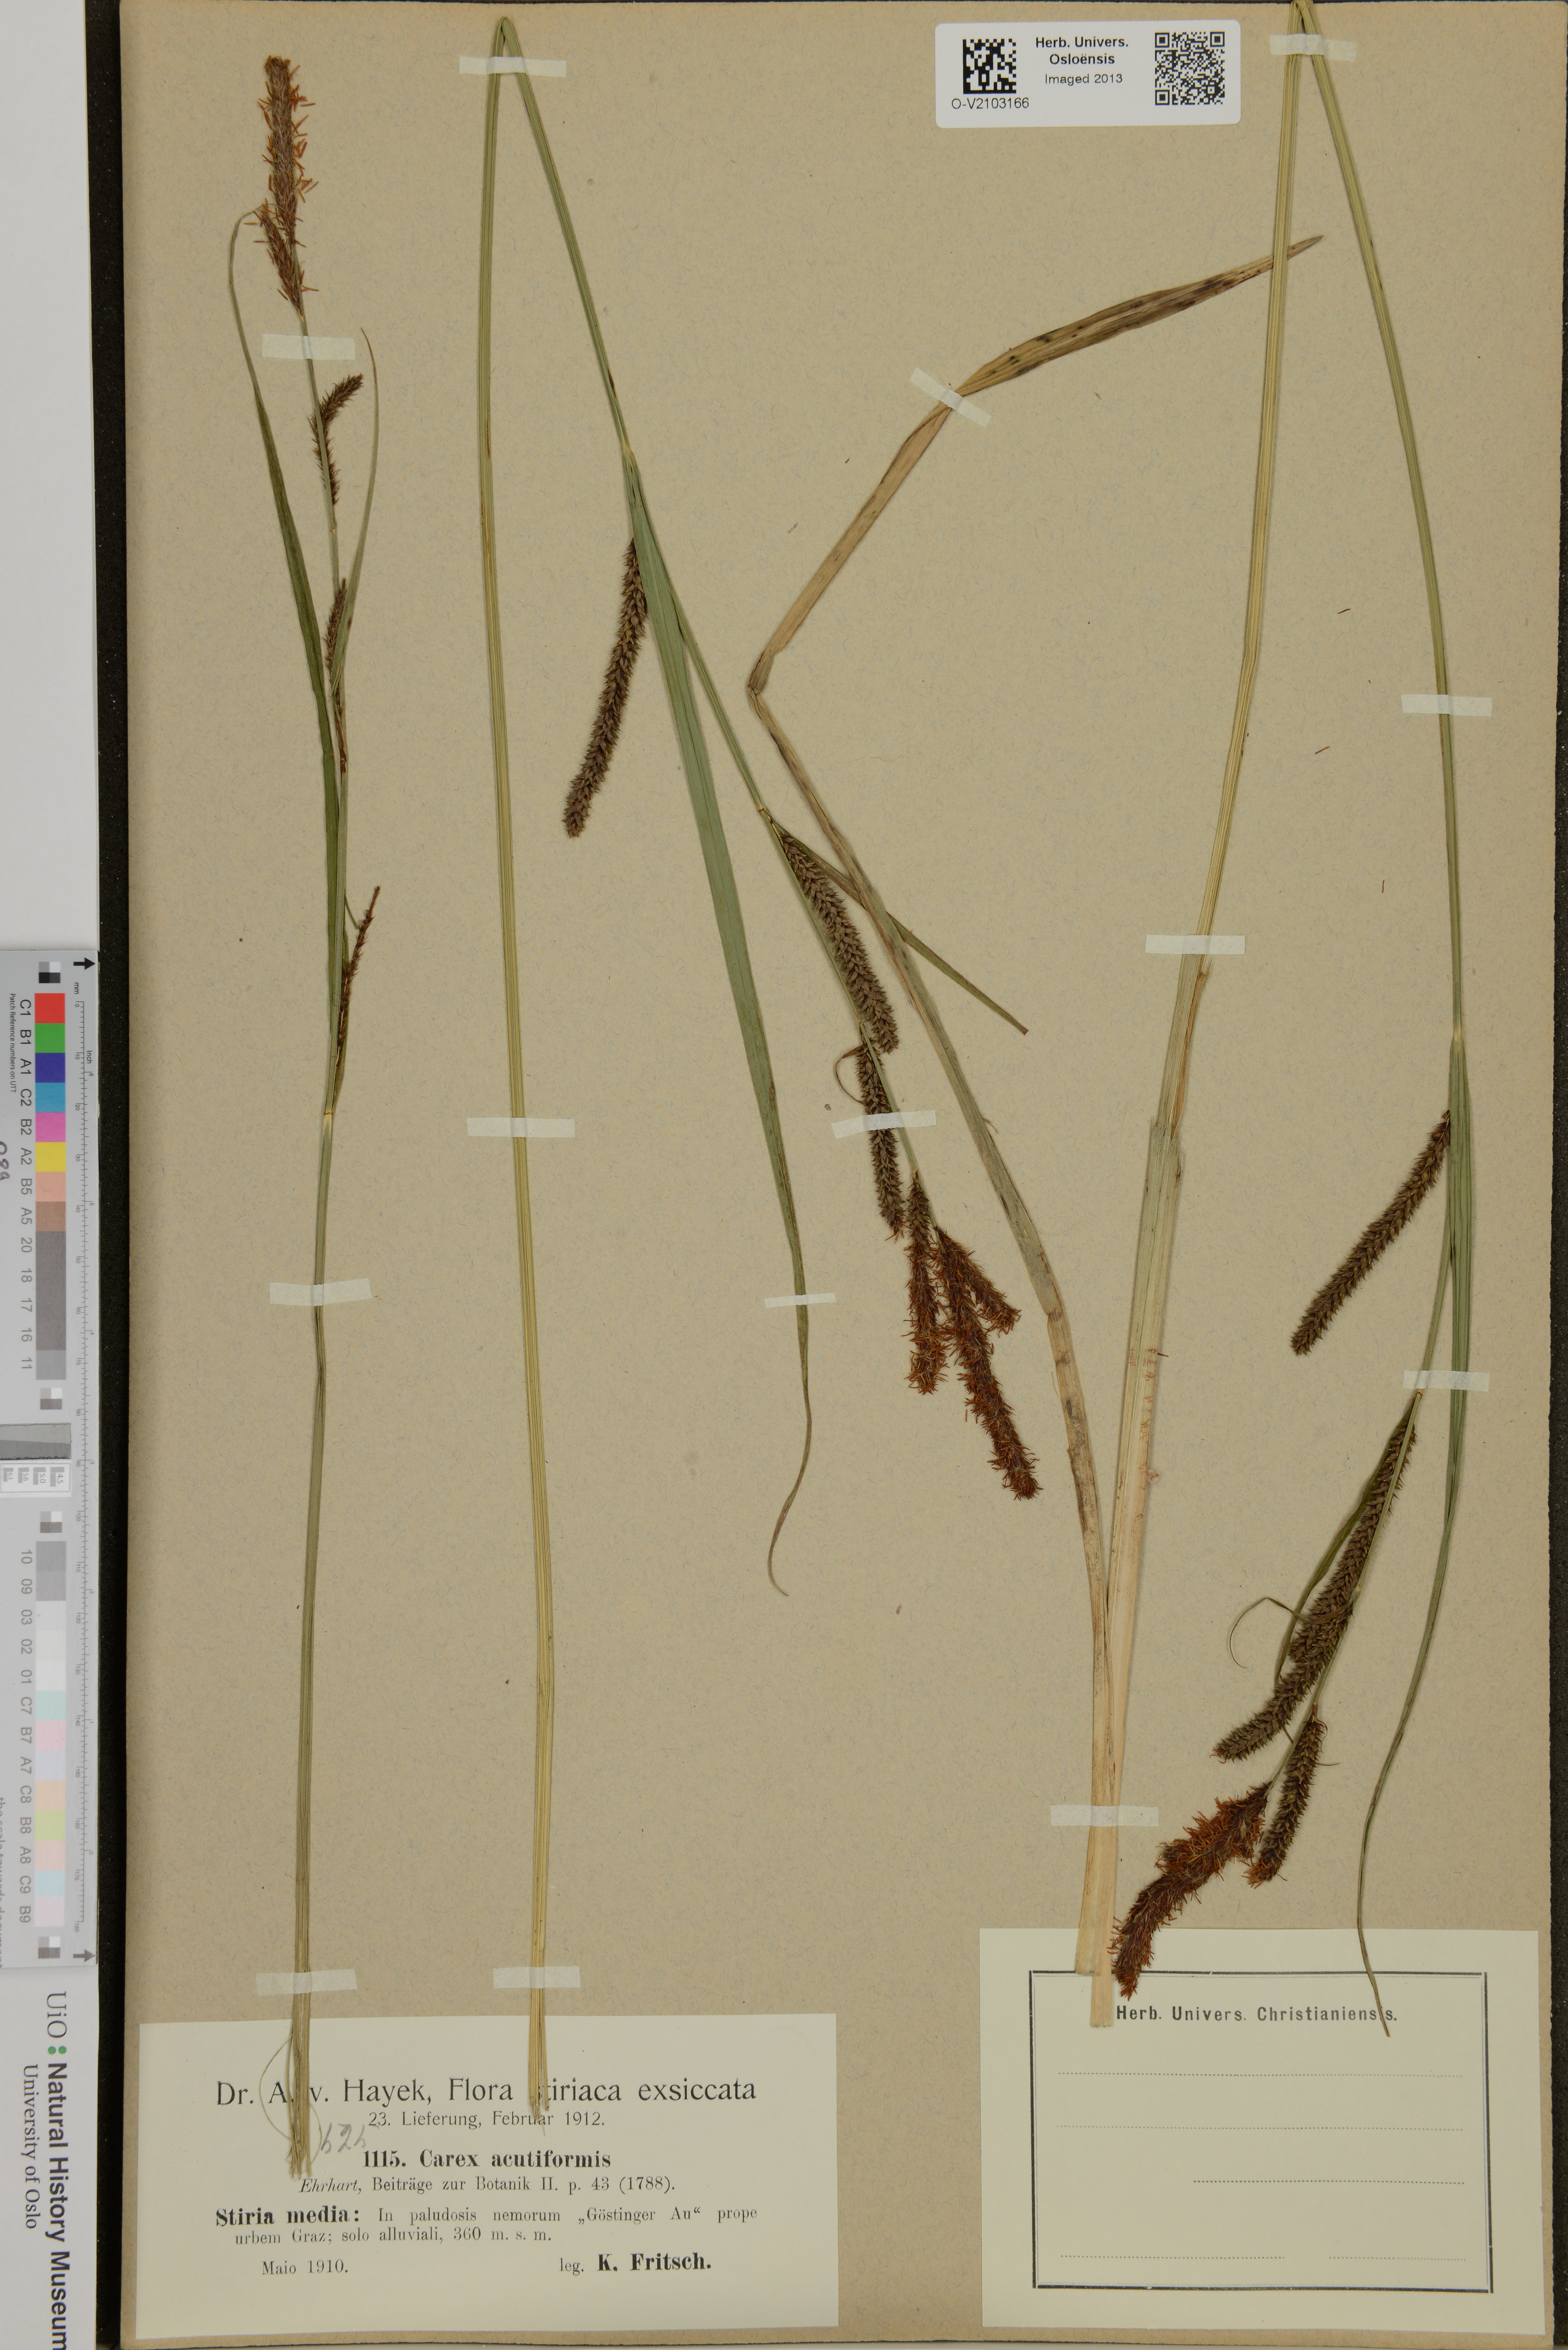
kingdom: Plantae
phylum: Tracheophyta
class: Liliopsida
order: Poales
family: Cyperaceae
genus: Carex
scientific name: Carex acutiformis
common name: Lesser pond-sedge
